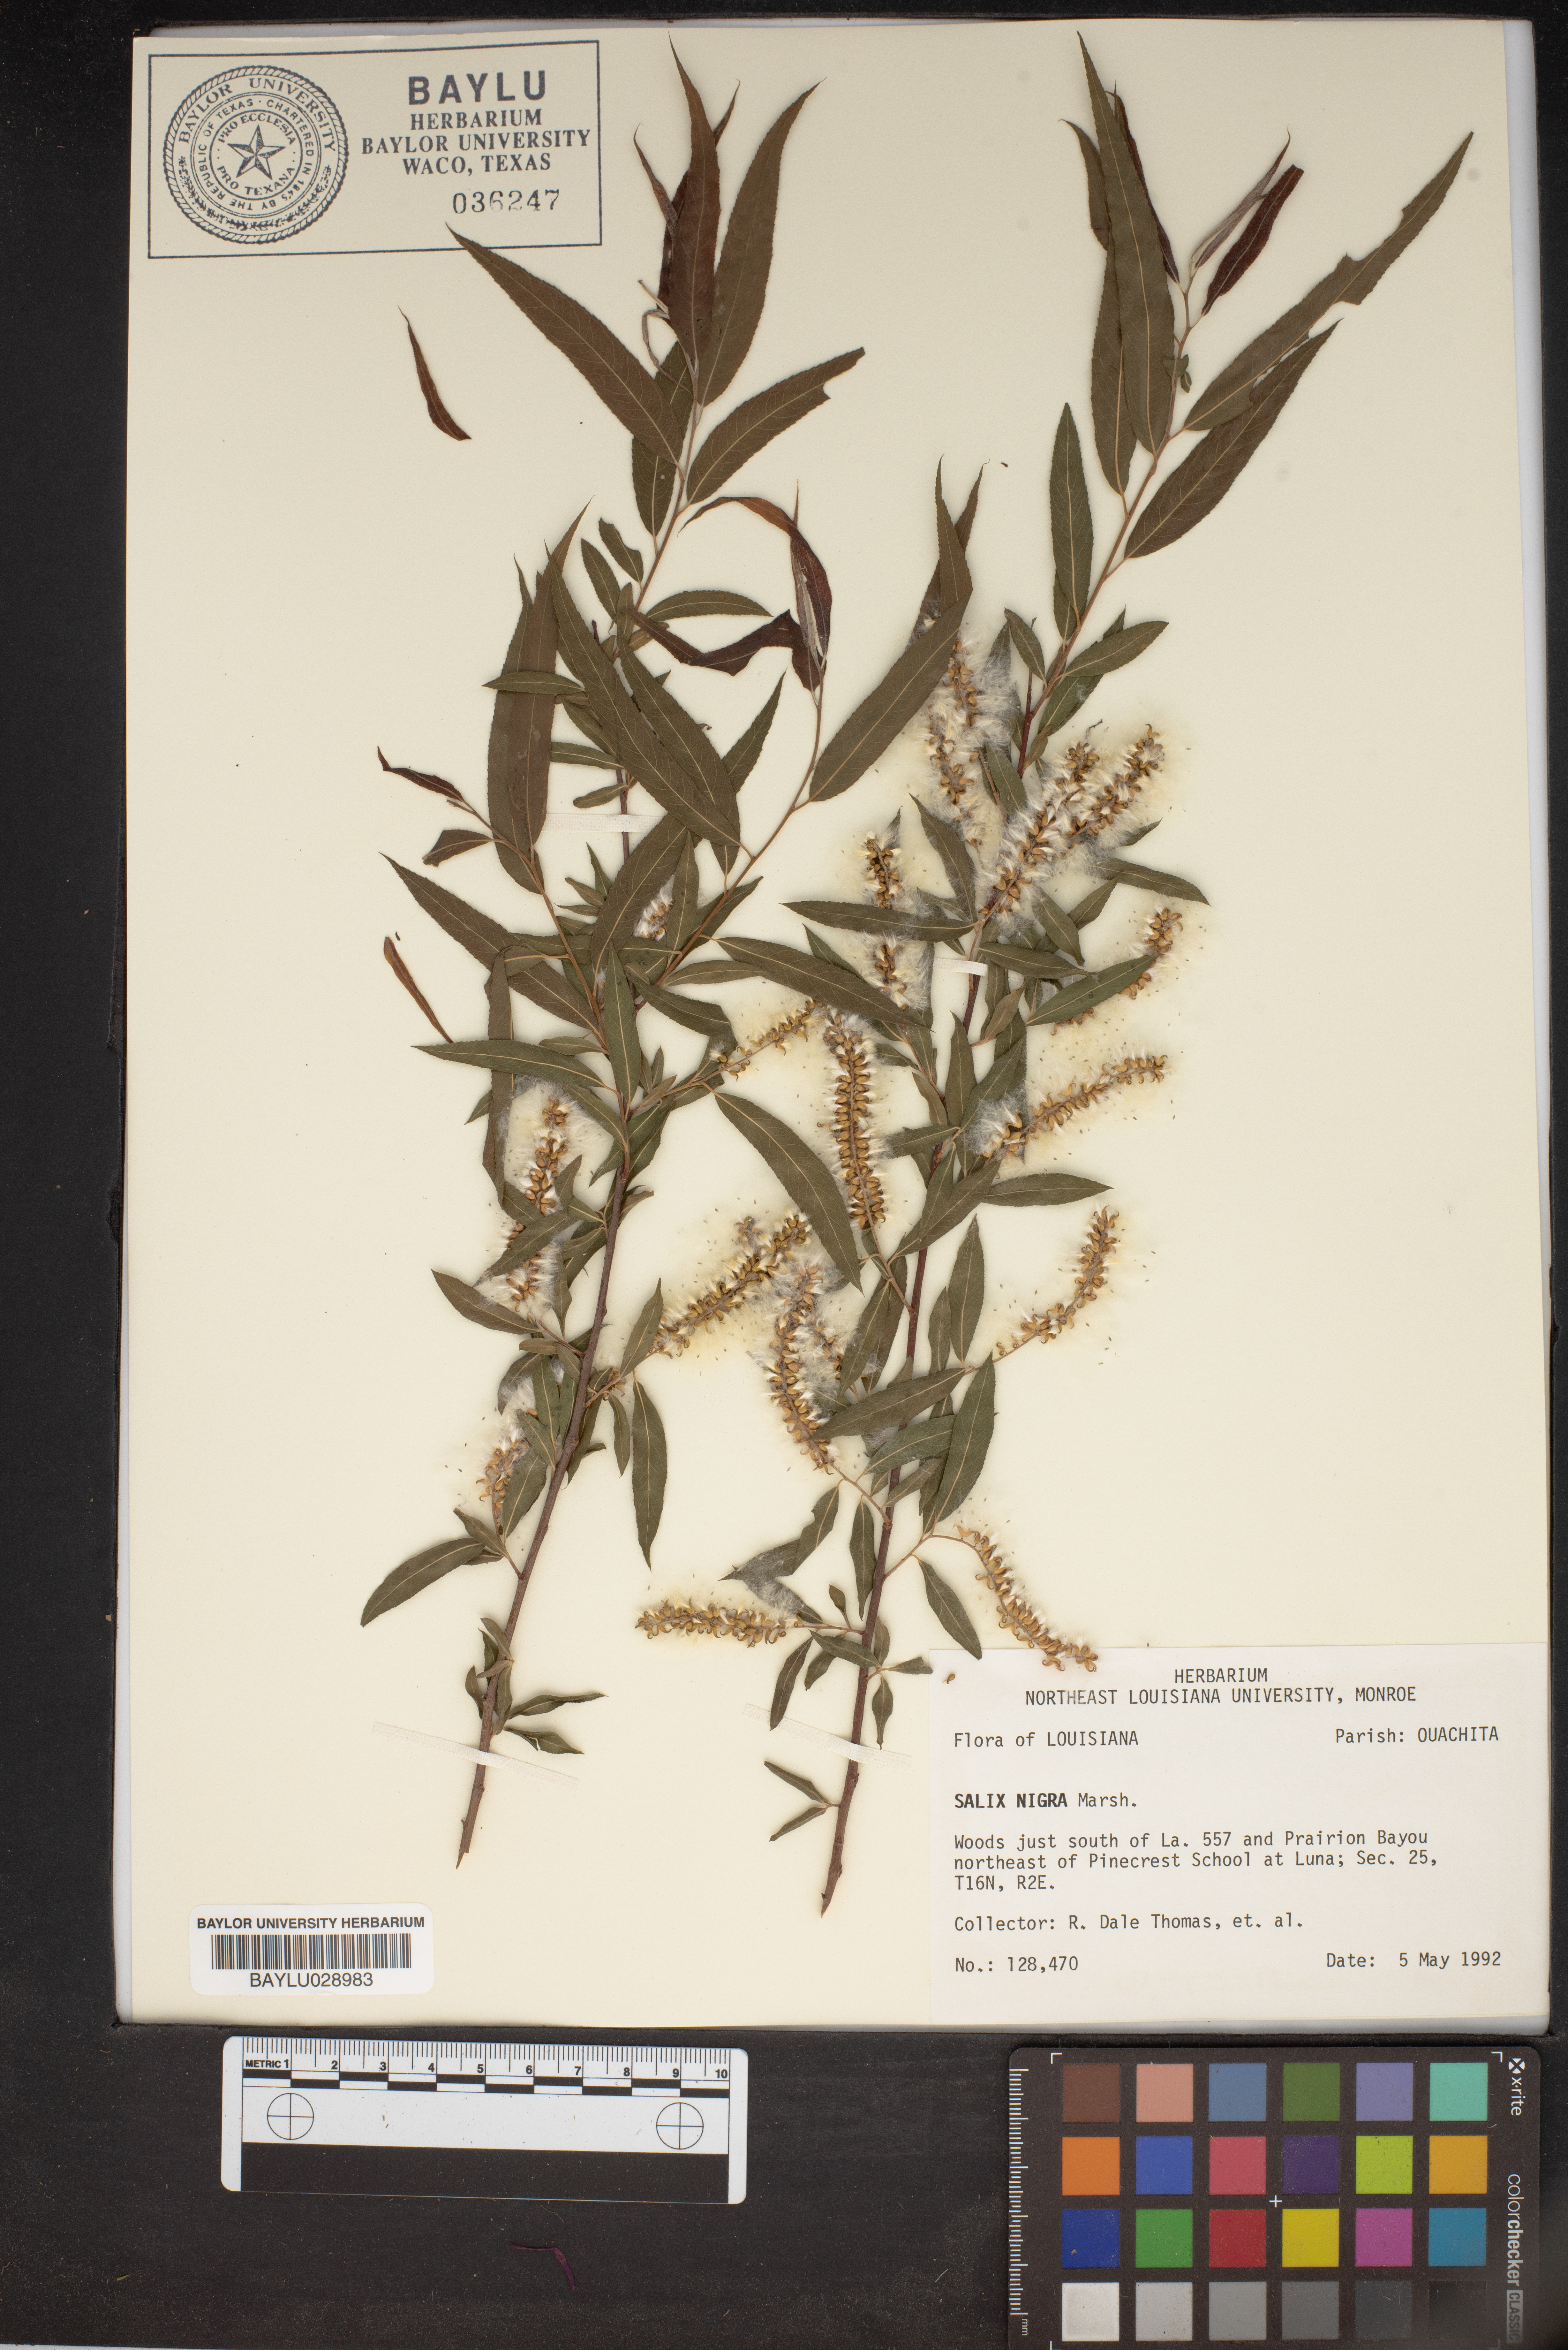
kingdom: Plantae
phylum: Tracheophyta
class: Magnoliopsida
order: Malpighiales
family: Salicaceae
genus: Salix
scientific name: Salix nigra
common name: Black willow
